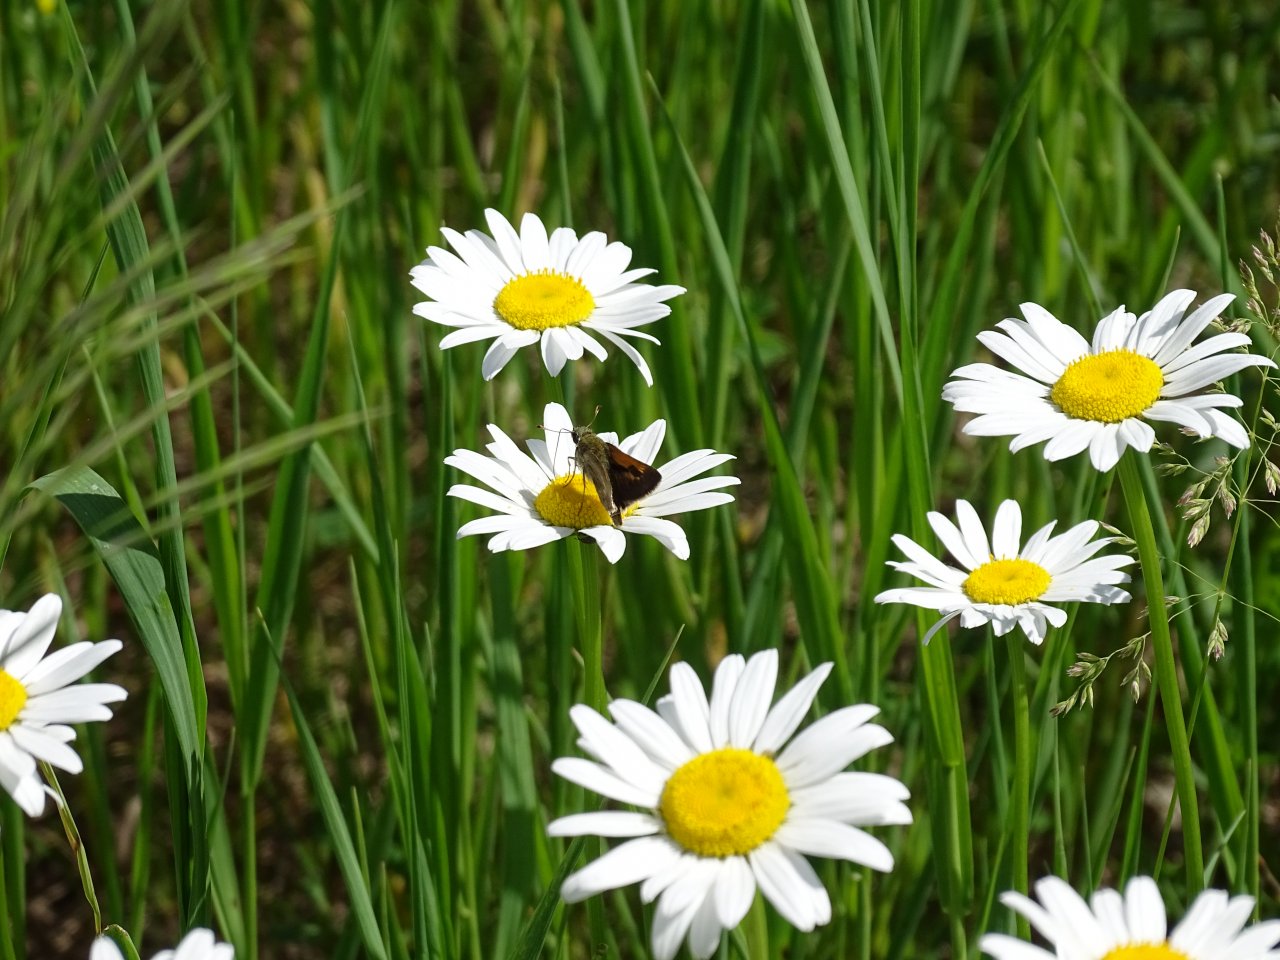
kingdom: Animalia
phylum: Arthropoda
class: Insecta
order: Lepidoptera
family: Hesperiidae
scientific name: Hesperiidae
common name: Skippers
